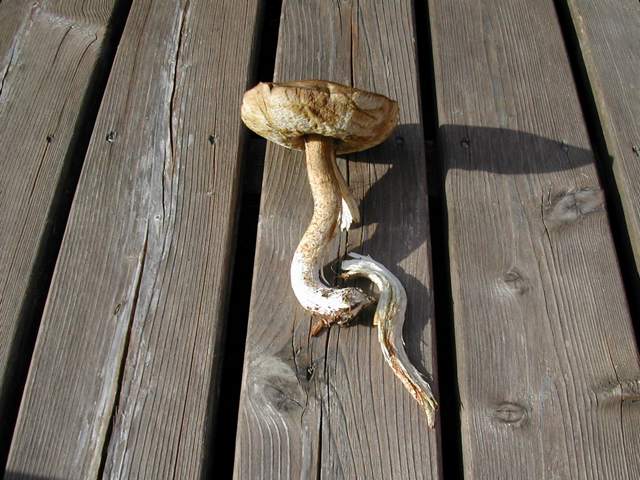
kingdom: Fungi
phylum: Basidiomycota
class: Agaricomycetes
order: Boletales
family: Boletaceae
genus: Leccinum
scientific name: Leccinum scabrum
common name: brun skælrørhat
